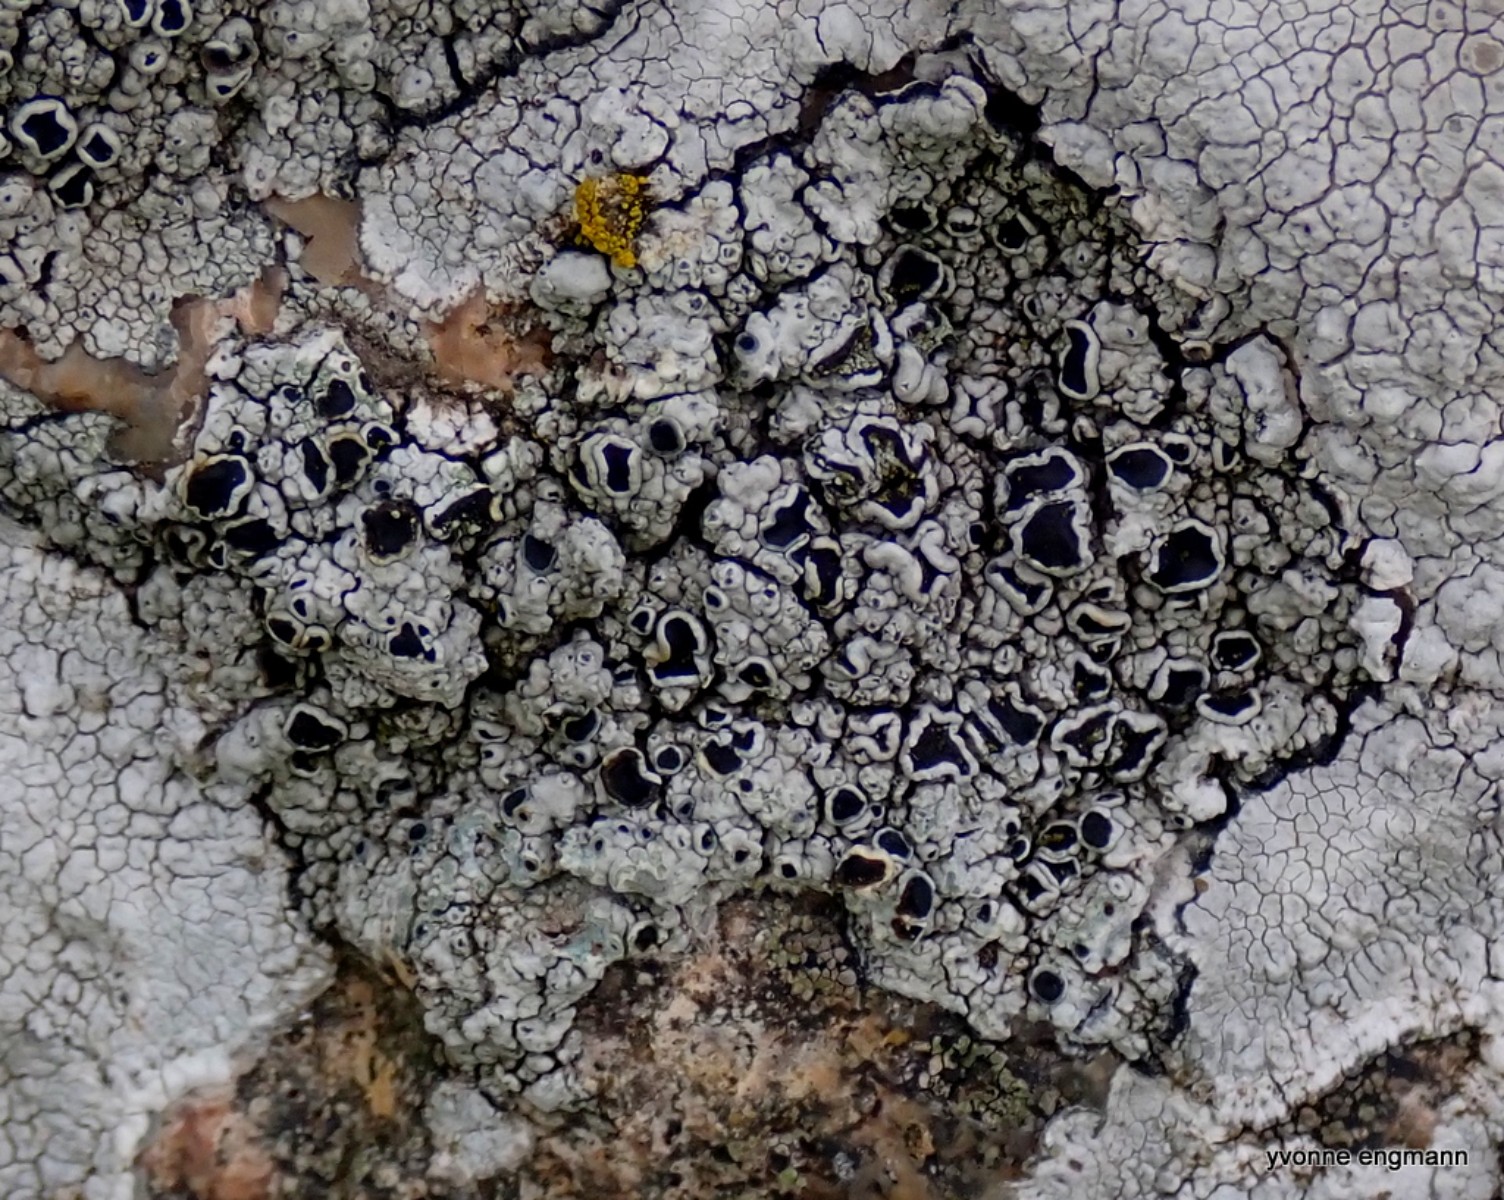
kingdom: Fungi
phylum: Ascomycota
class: Lecanoromycetes
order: Lecanorales
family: Tephromelataceae
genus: Tephromela
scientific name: Tephromela atra
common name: sortfrugtet kantskivelav
